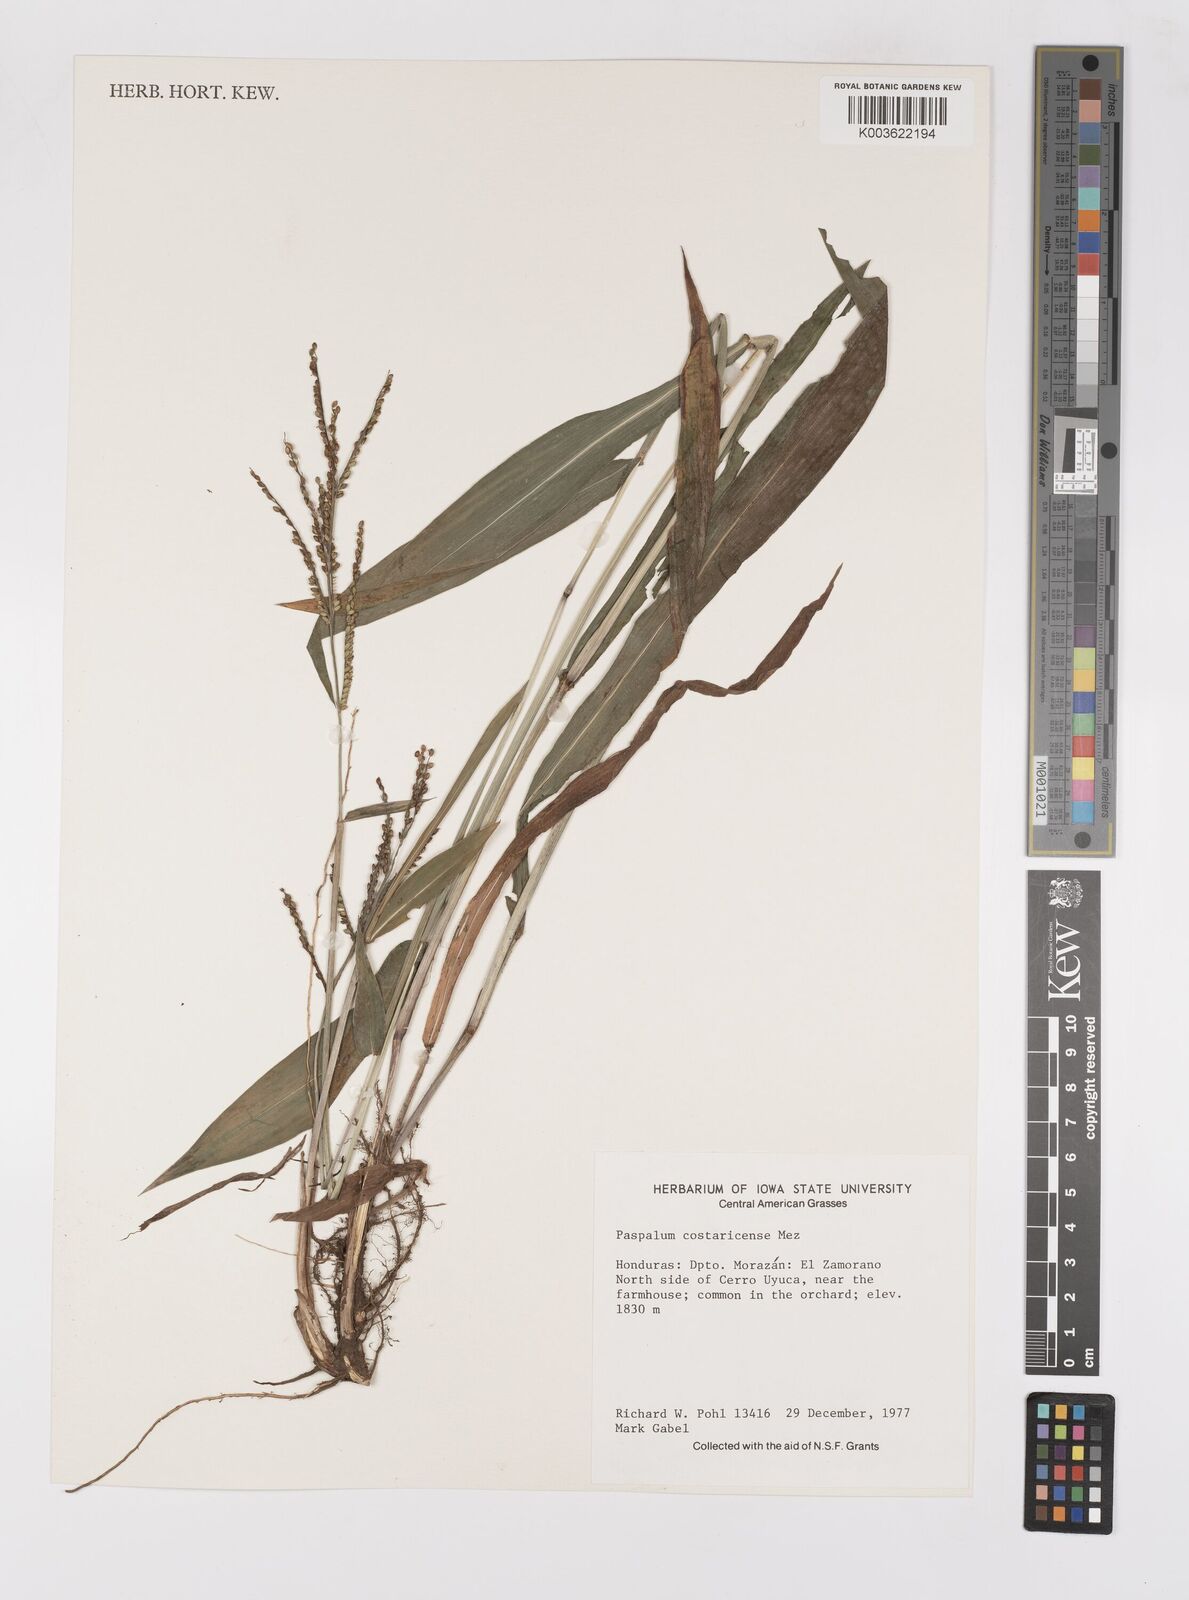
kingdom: Plantae
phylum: Tracheophyta
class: Liliopsida
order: Poales
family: Poaceae
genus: Paspalum
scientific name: Paspalum castaneum
